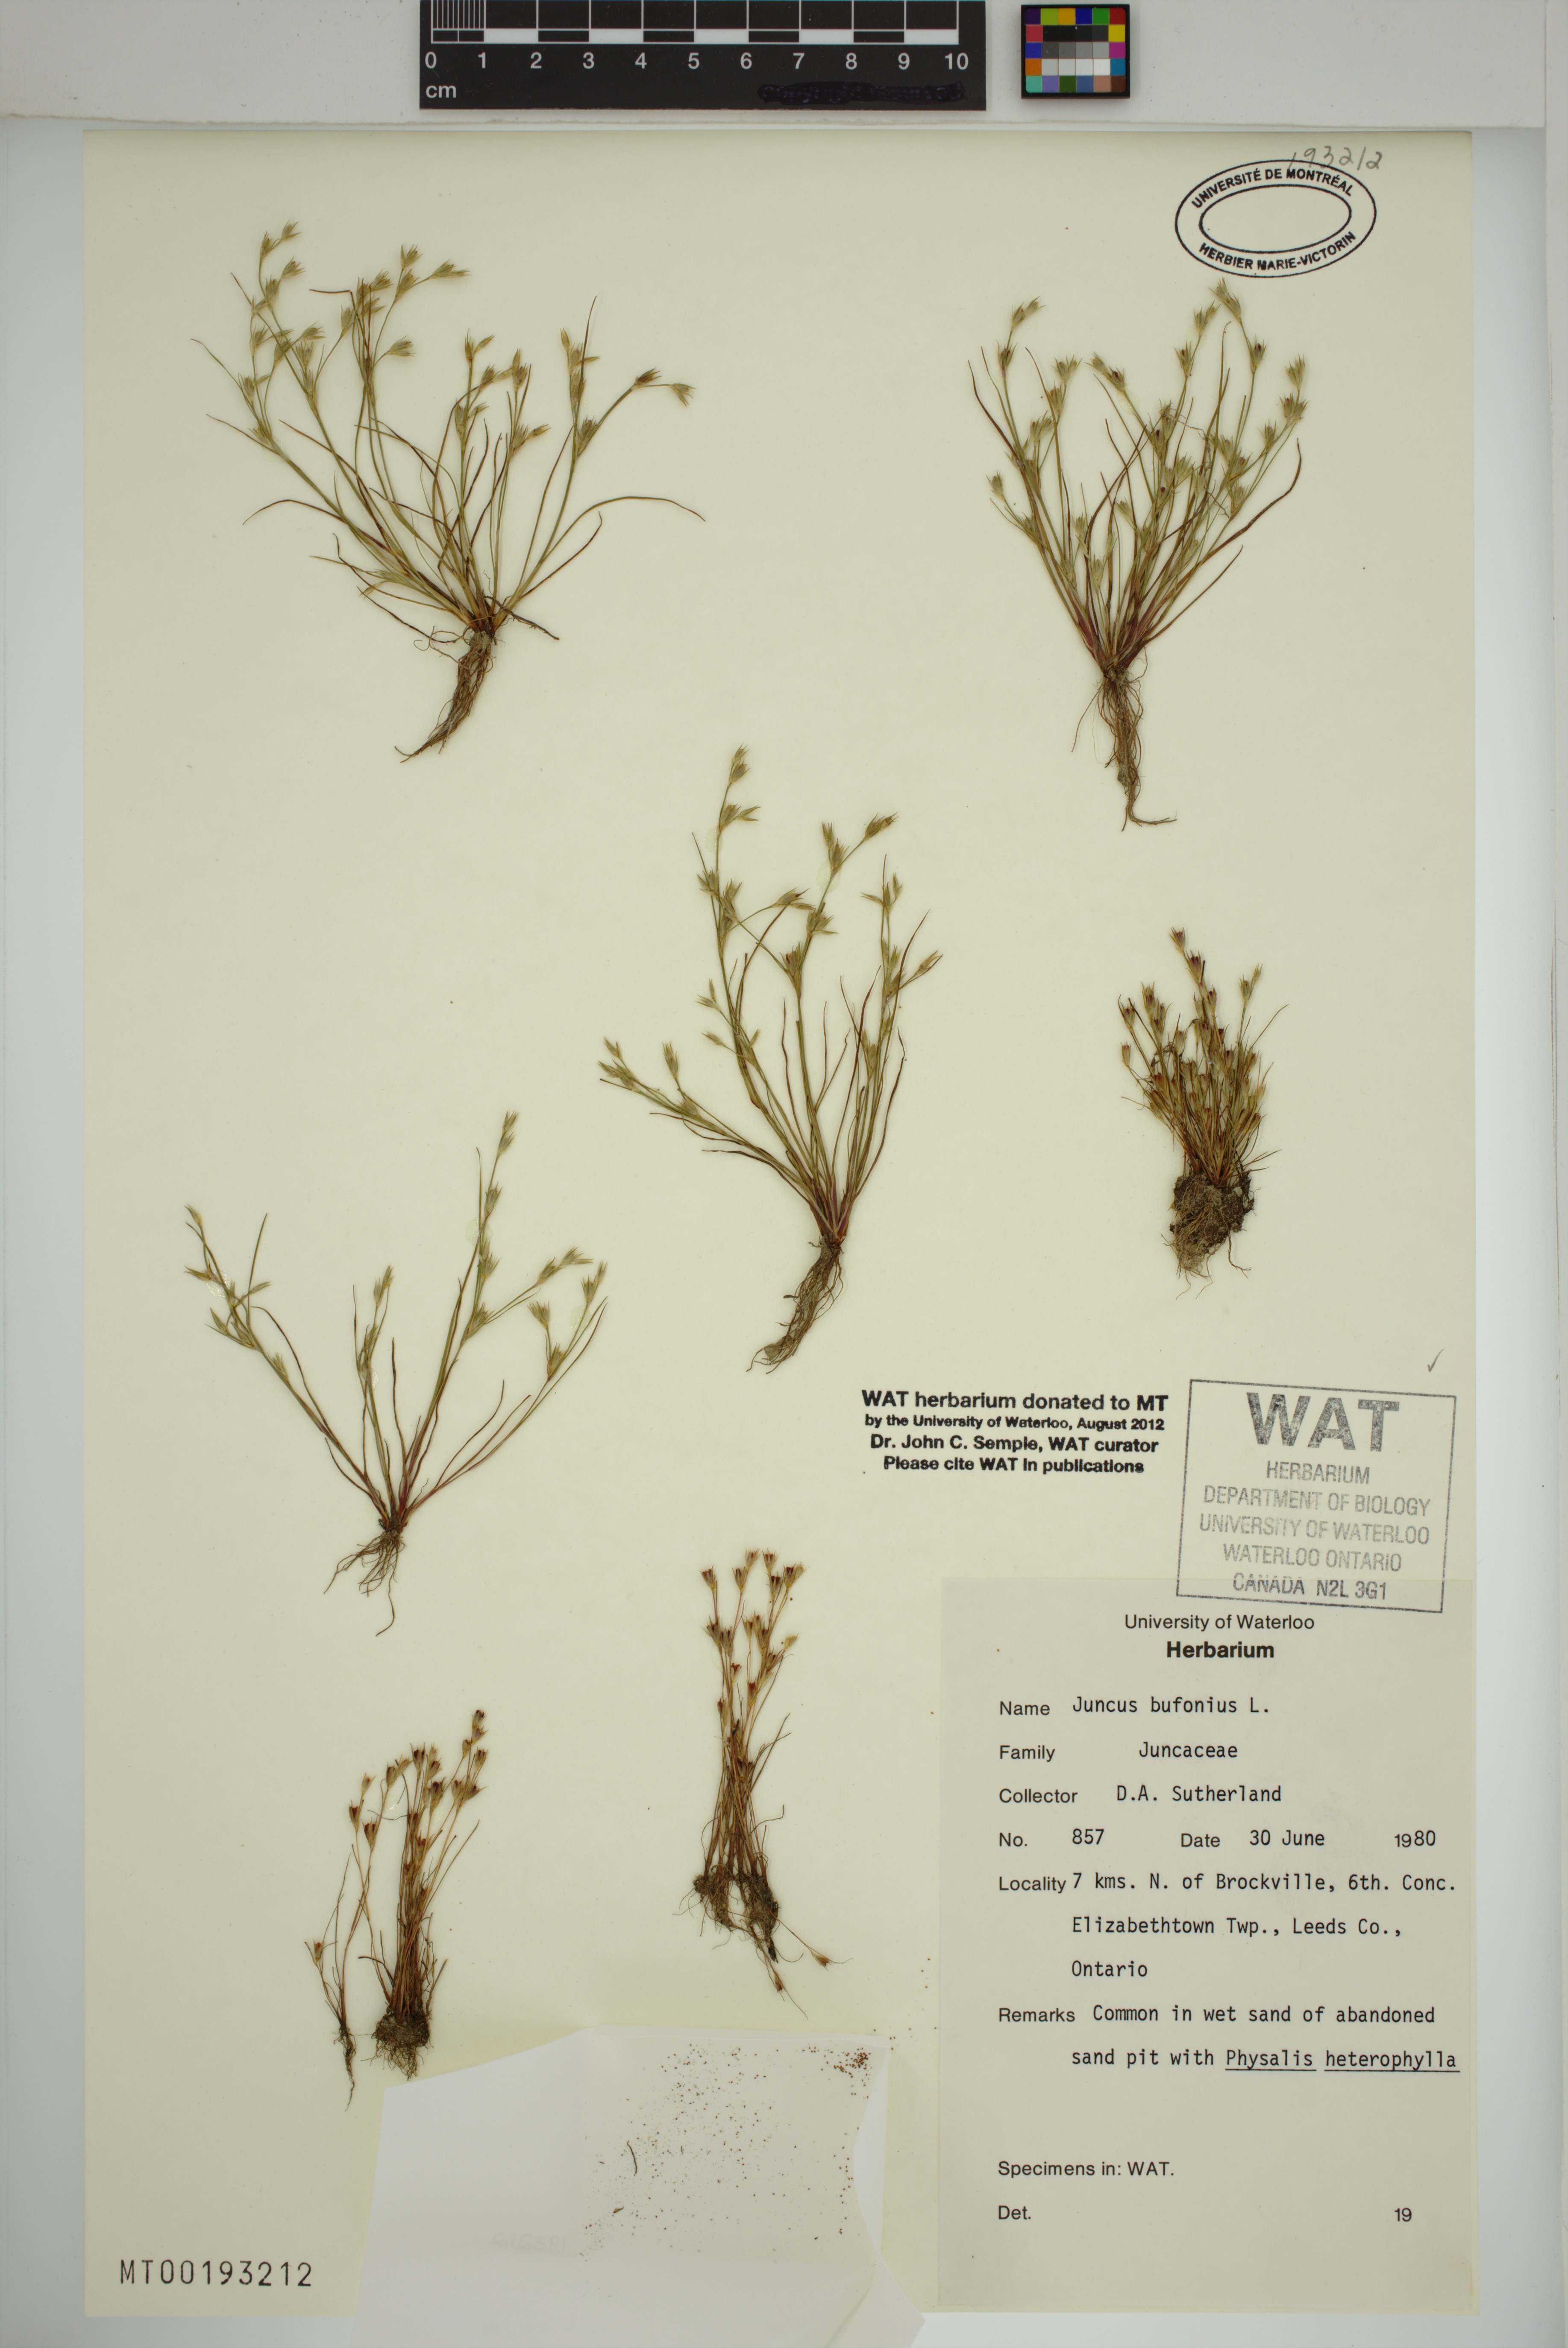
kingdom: Plantae
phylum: Tracheophyta
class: Liliopsida
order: Poales
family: Juncaceae
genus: Juncus
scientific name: Juncus bufonius
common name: Toad rush
